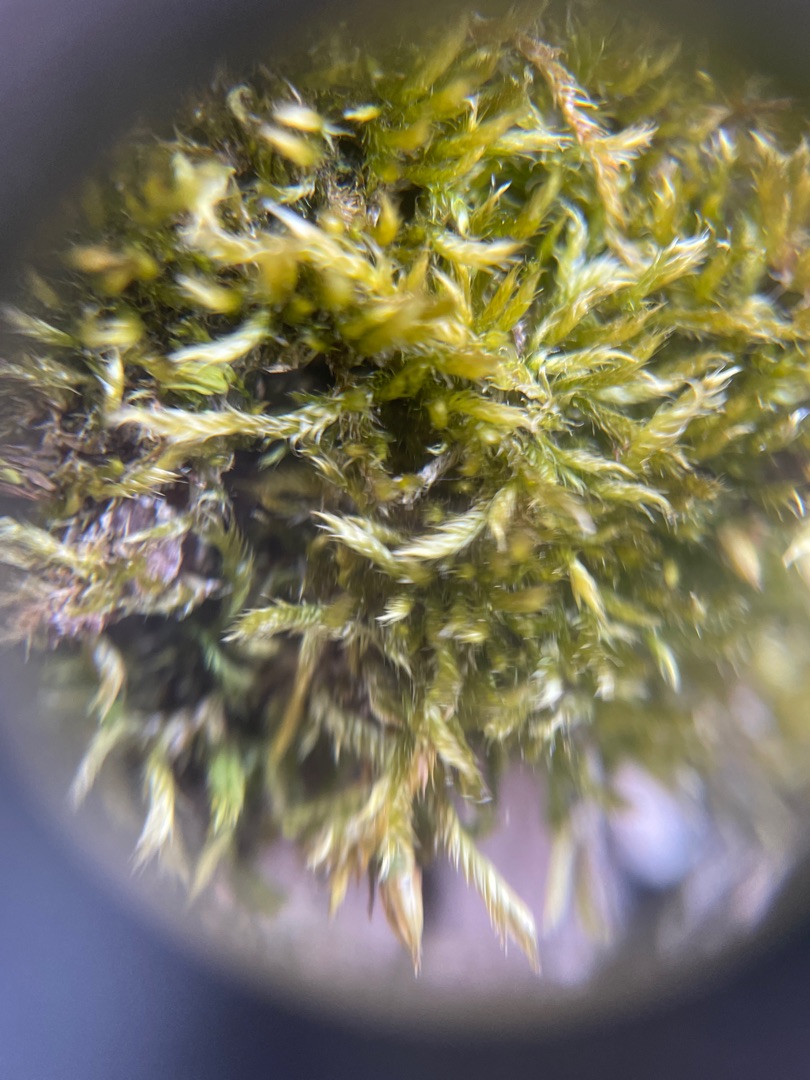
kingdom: Plantae
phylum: Bryophyta
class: Bryopsida
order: Hypnales
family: Hypnaceae
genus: Hypnum
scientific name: Hypnum
